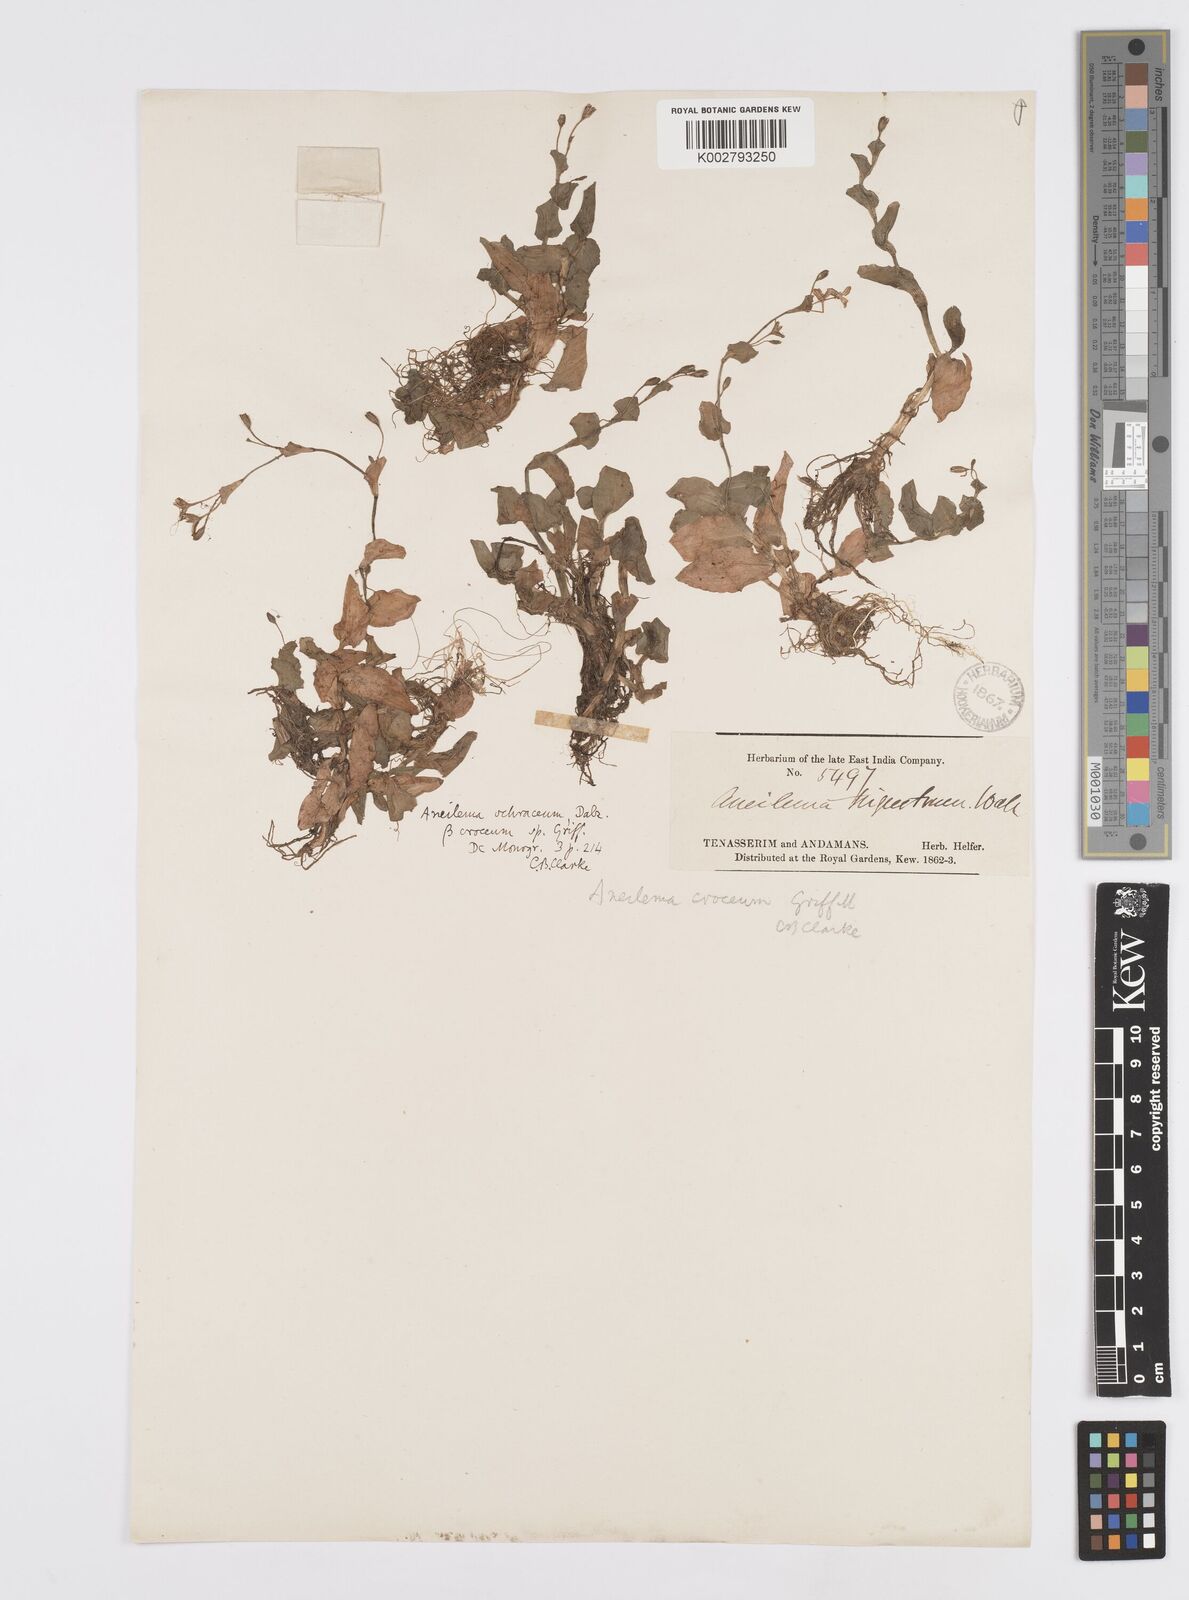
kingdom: Plantae
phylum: Tracheophyta
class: Liliopsida
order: Commelinales
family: Commelinaceae
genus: Murdannia
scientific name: Murdannia crocea
